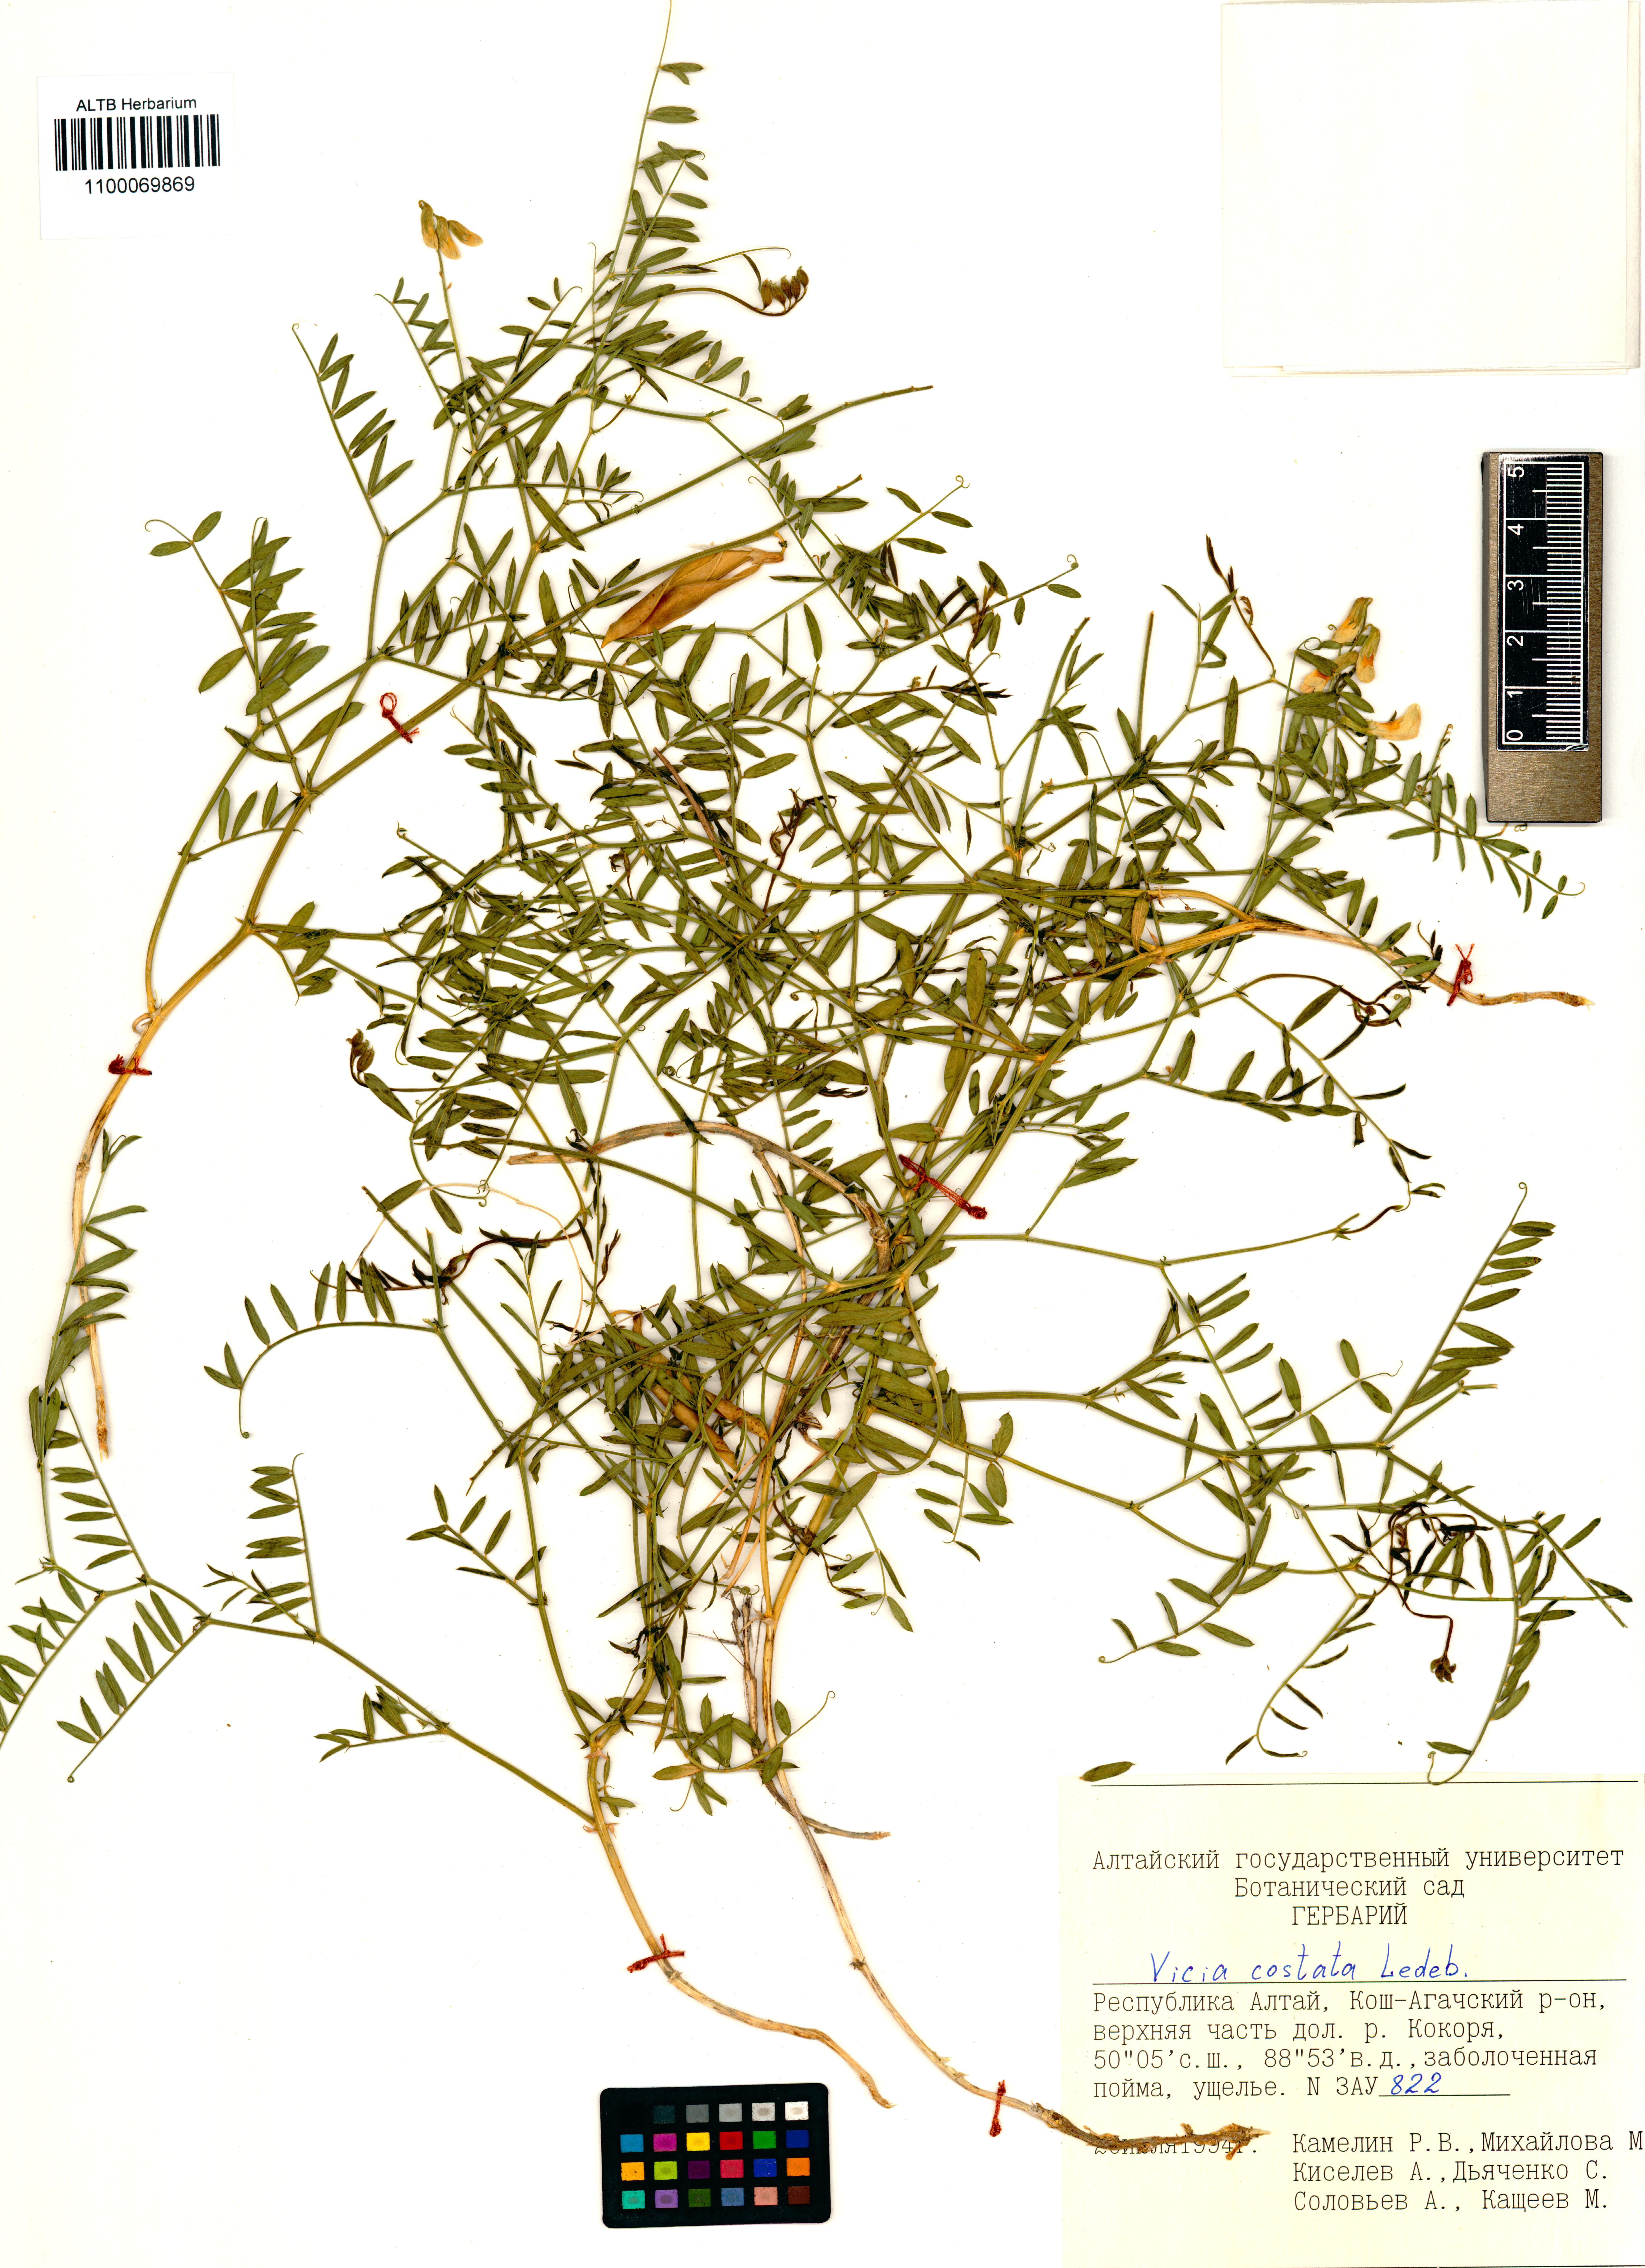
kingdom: Plantae
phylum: Tracheophyta
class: Magnoliopsida
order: Fabales
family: Fabaceae
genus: Vicia
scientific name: Vicia costata
